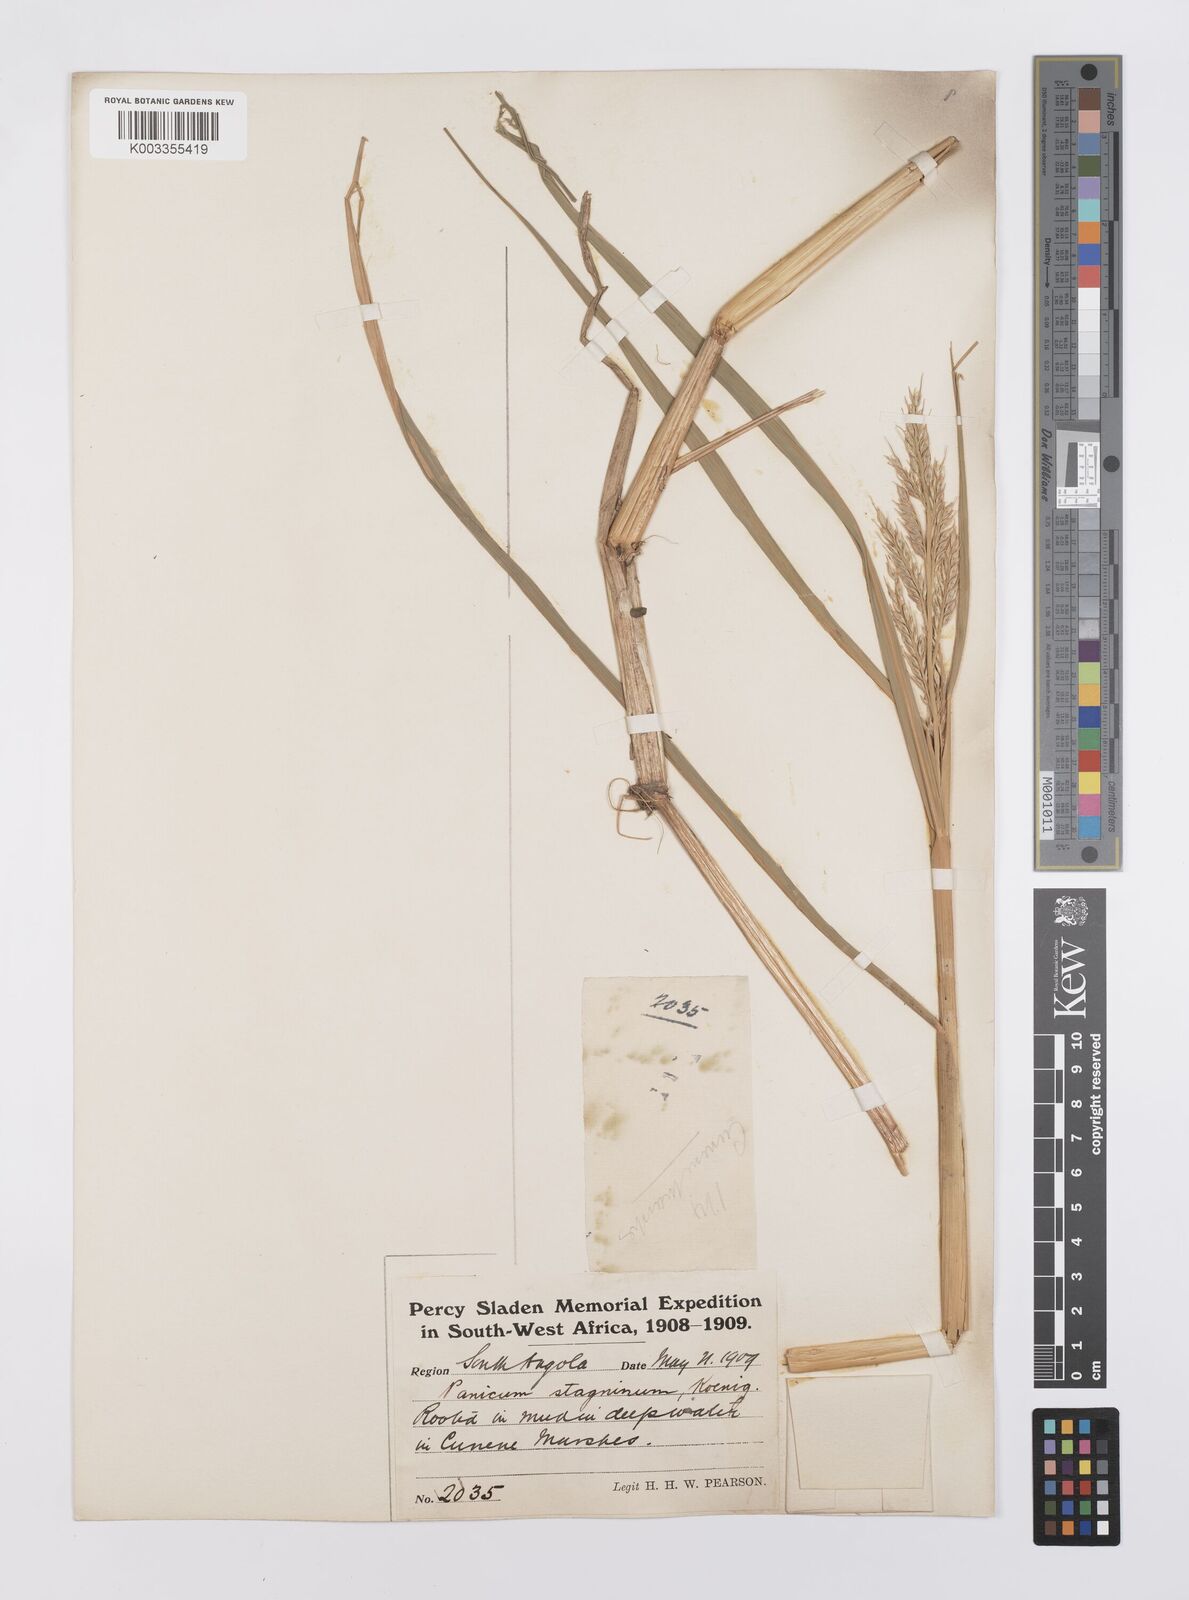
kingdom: Plantae
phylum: Tracheophyta
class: Liliopsida
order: Poales
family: Poaceae
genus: Echinochloa
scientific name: Echinochloa stagnina
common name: Burgu grass
